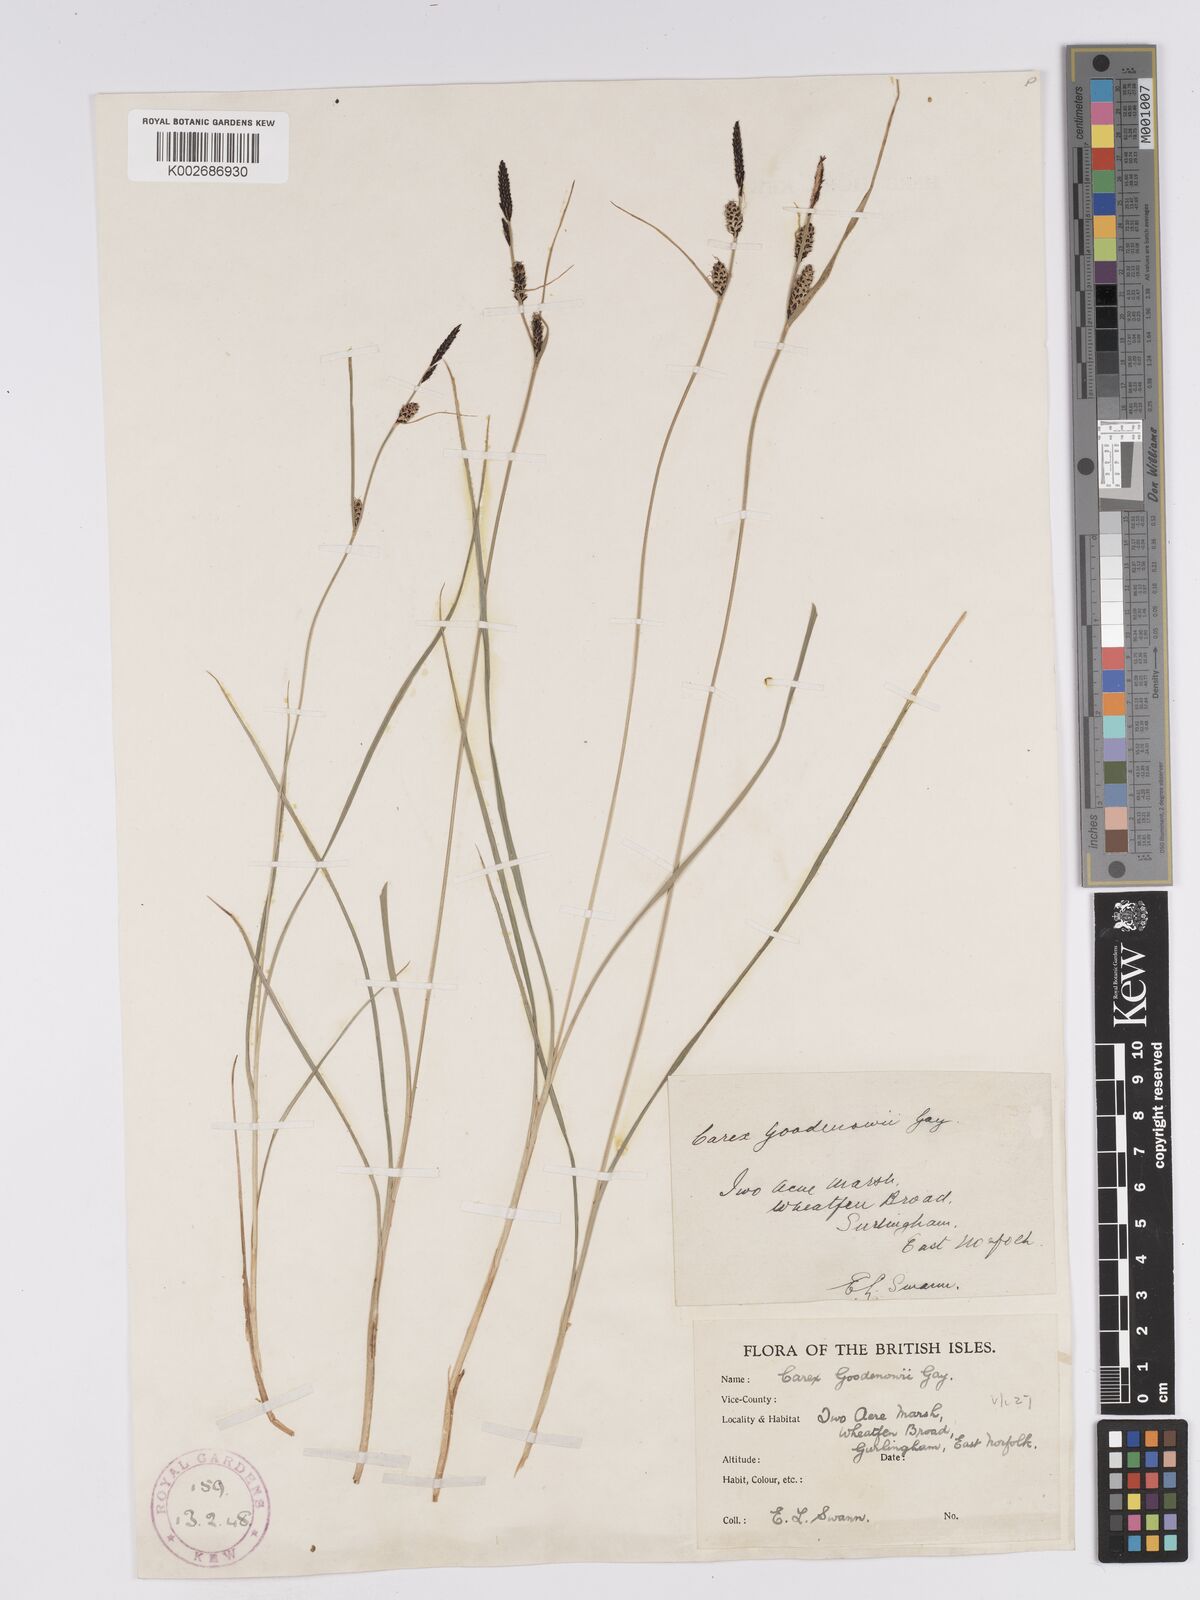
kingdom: Plantae
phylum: Tracheophyta
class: Liliopsida
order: Poales
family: Cyperaceae
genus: Carex
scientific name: Carex nigra
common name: Common sedge
